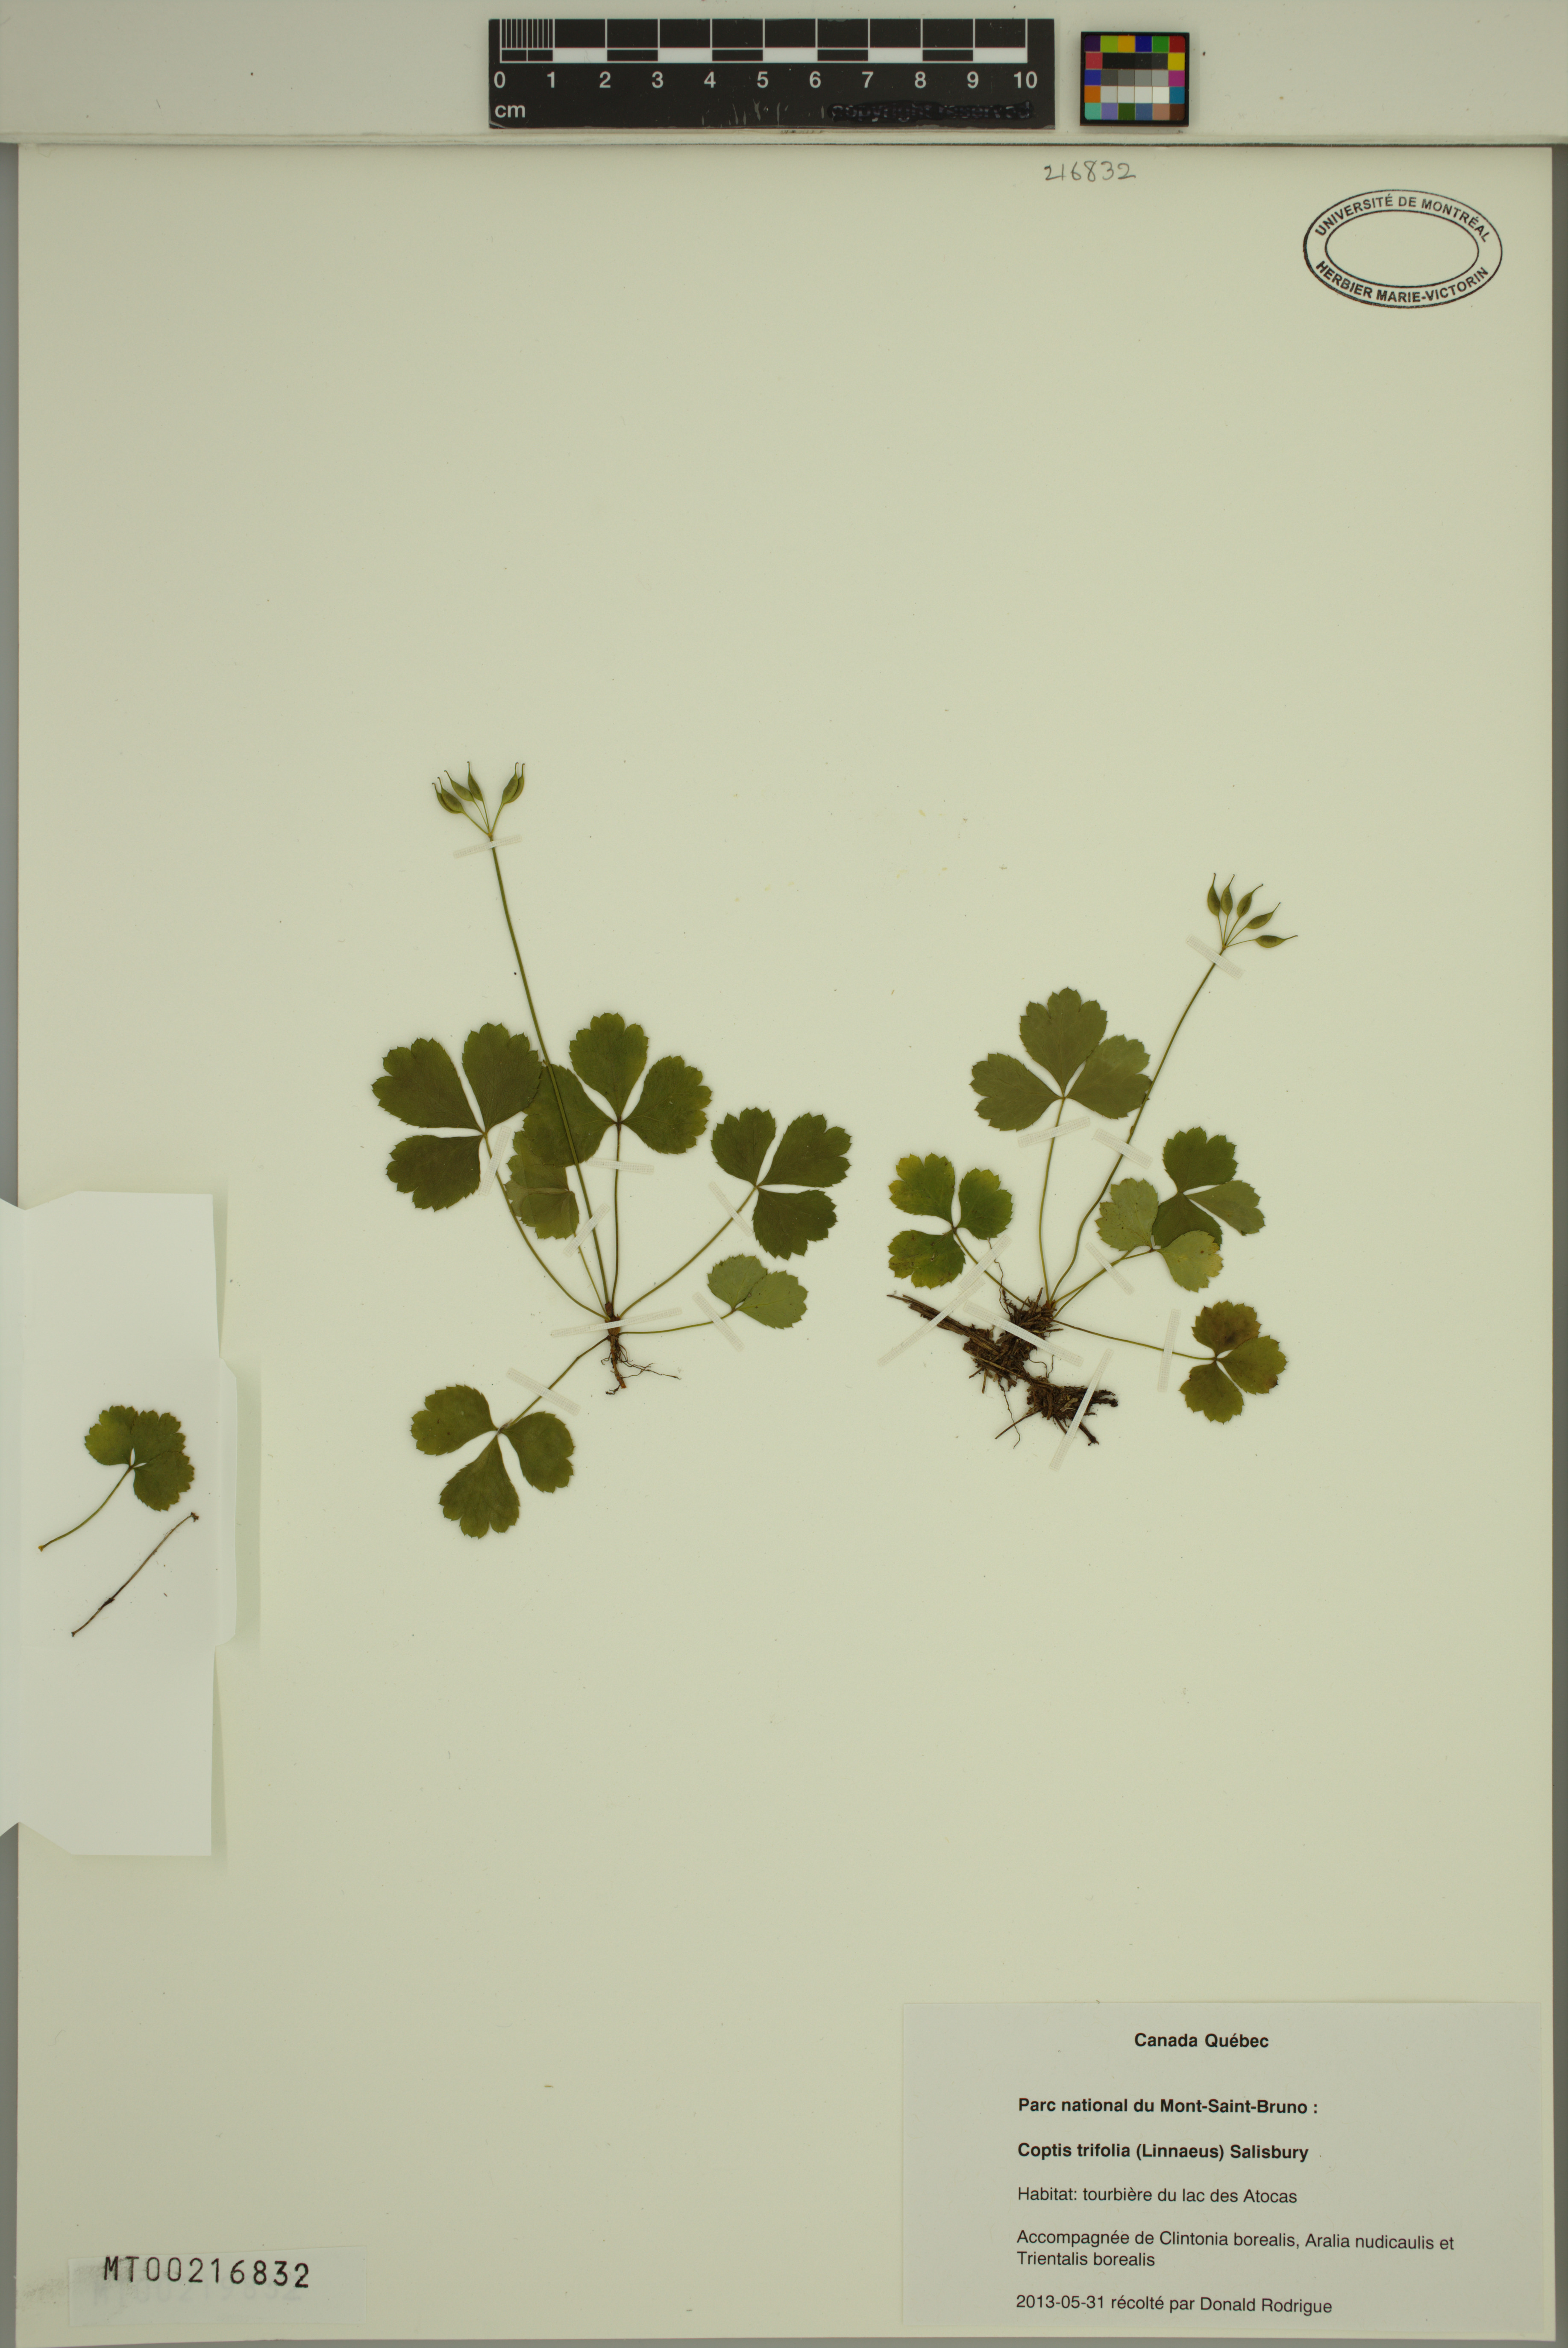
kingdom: Plantae
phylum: Tracheophyta
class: Magnoliopsida
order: Ranunculales
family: Ranunculaceae
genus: Coptis
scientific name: Coptis trifolia
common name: Canker-root
